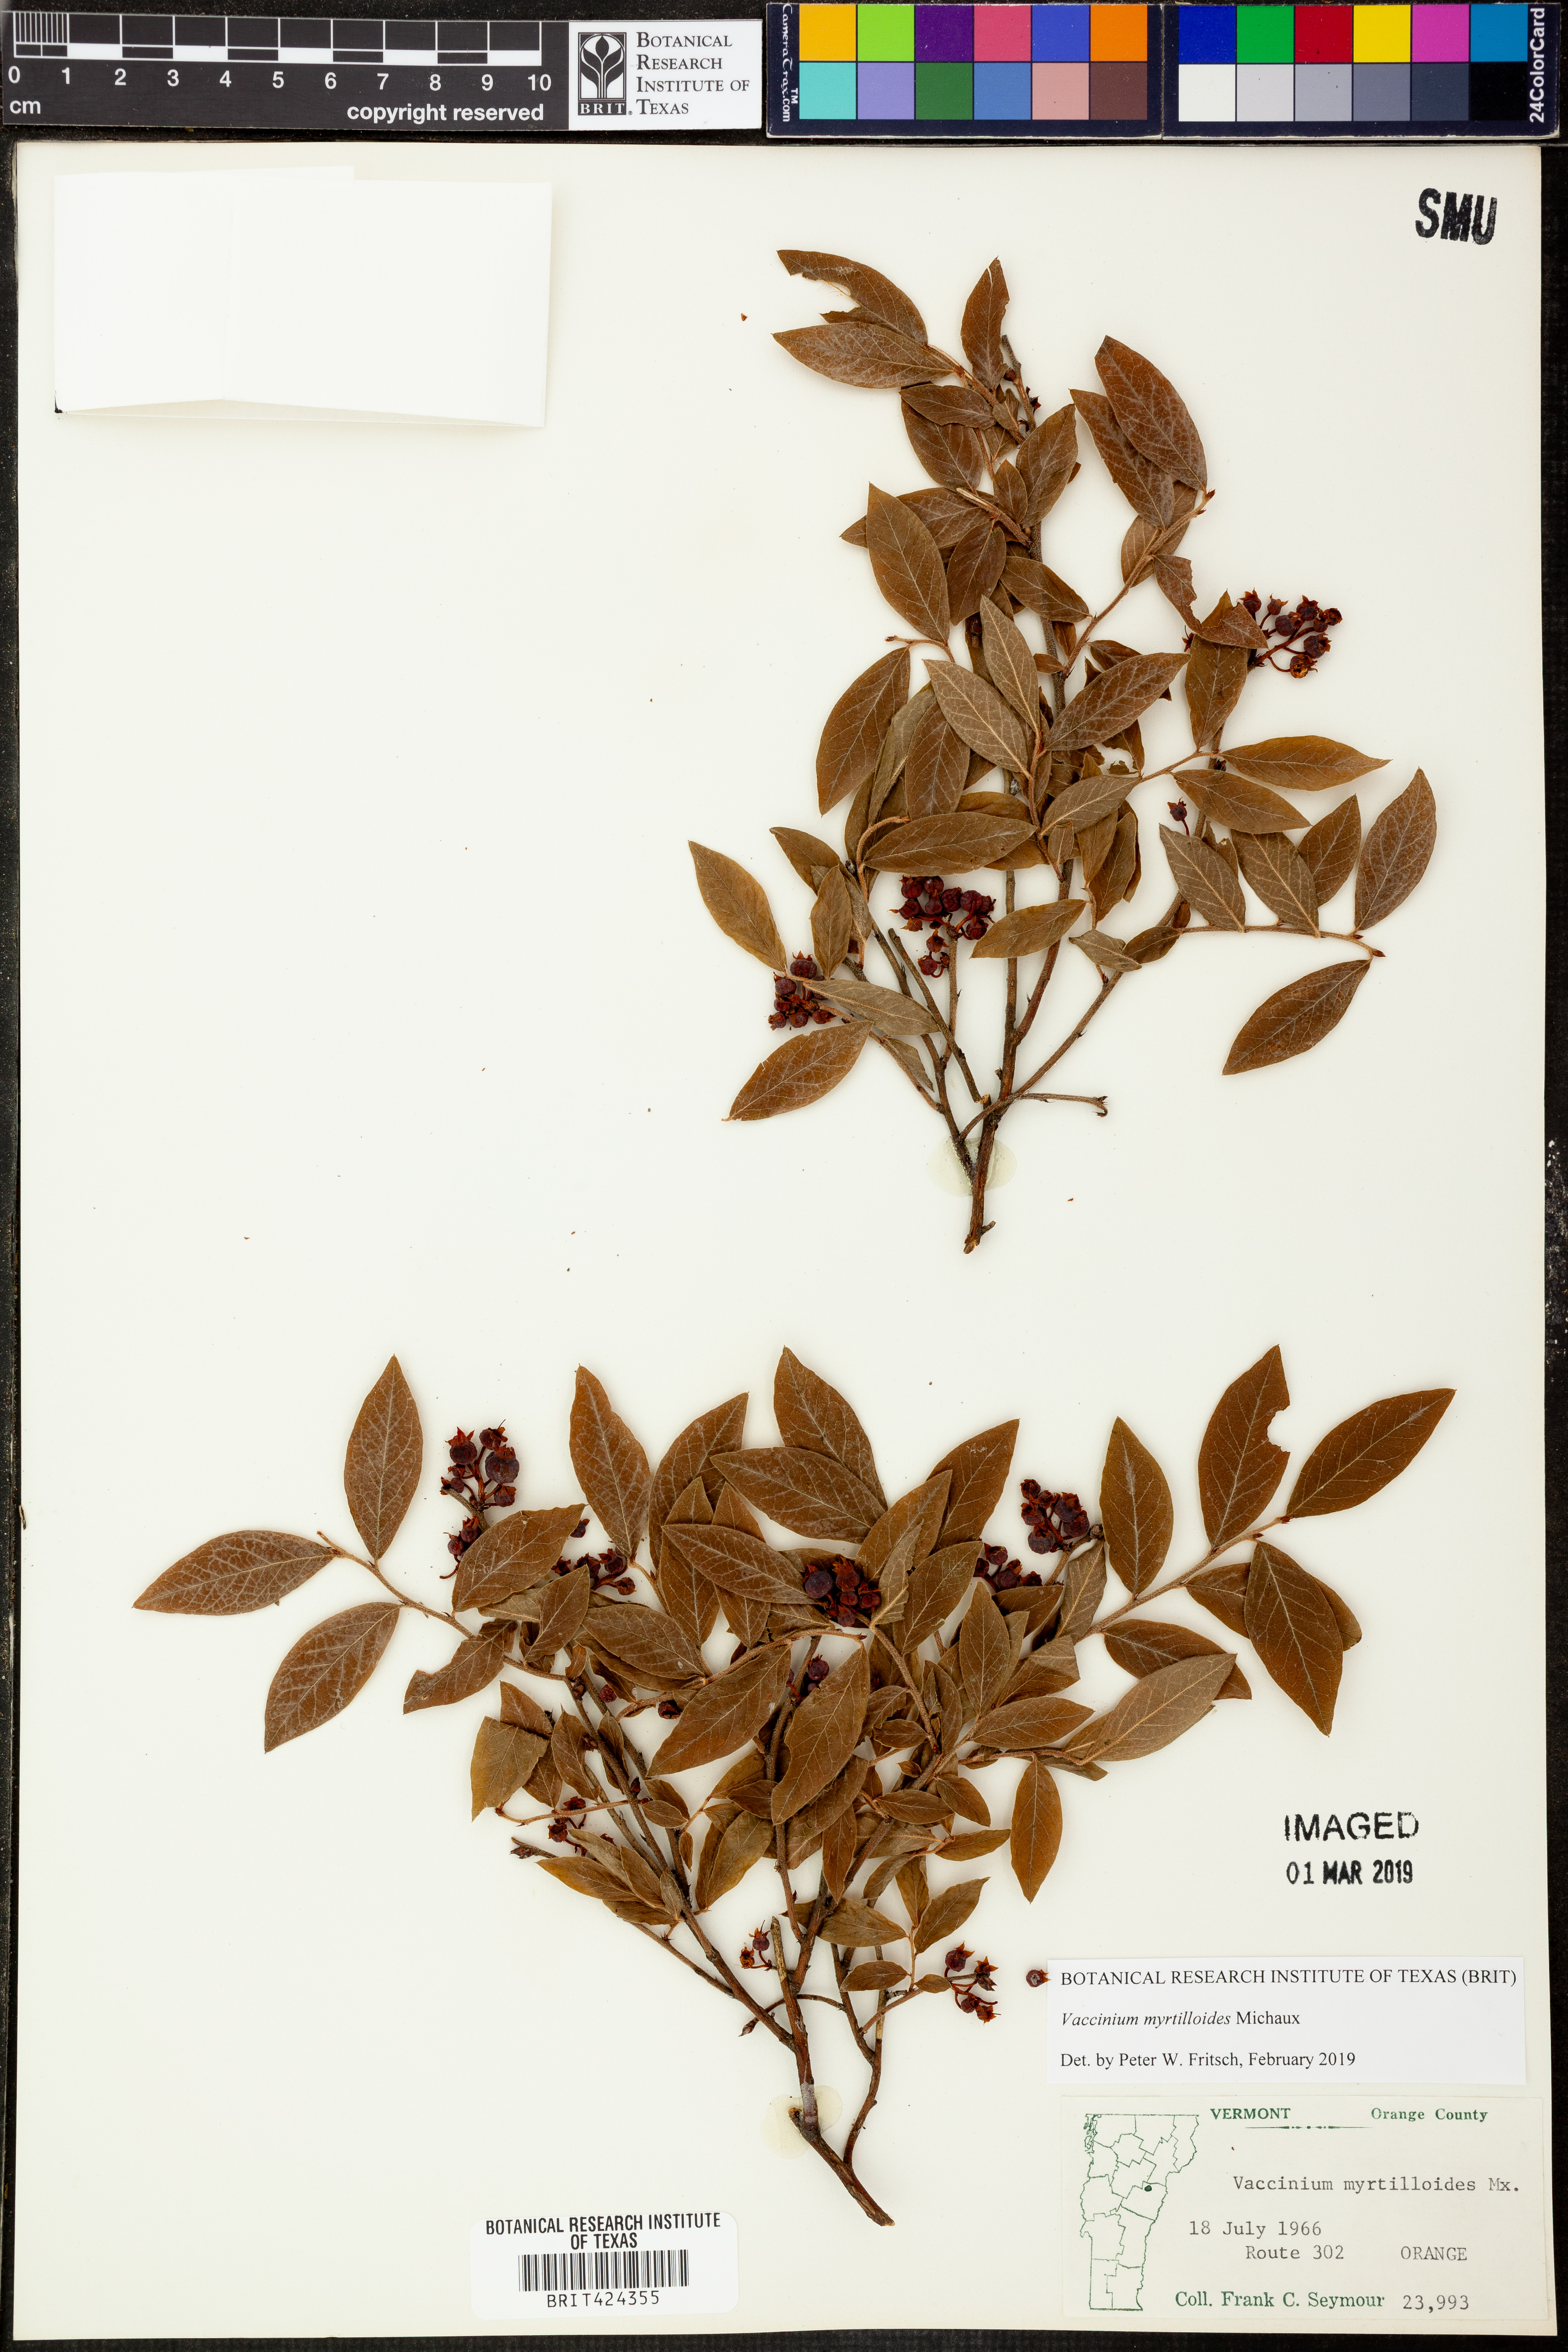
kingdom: Plantae
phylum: Tracheophyta
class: Magnoliopsida
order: Ericales
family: Ericaceae
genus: Vaccinium
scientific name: Vaccinium myrtilloides
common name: Canada blueberry
